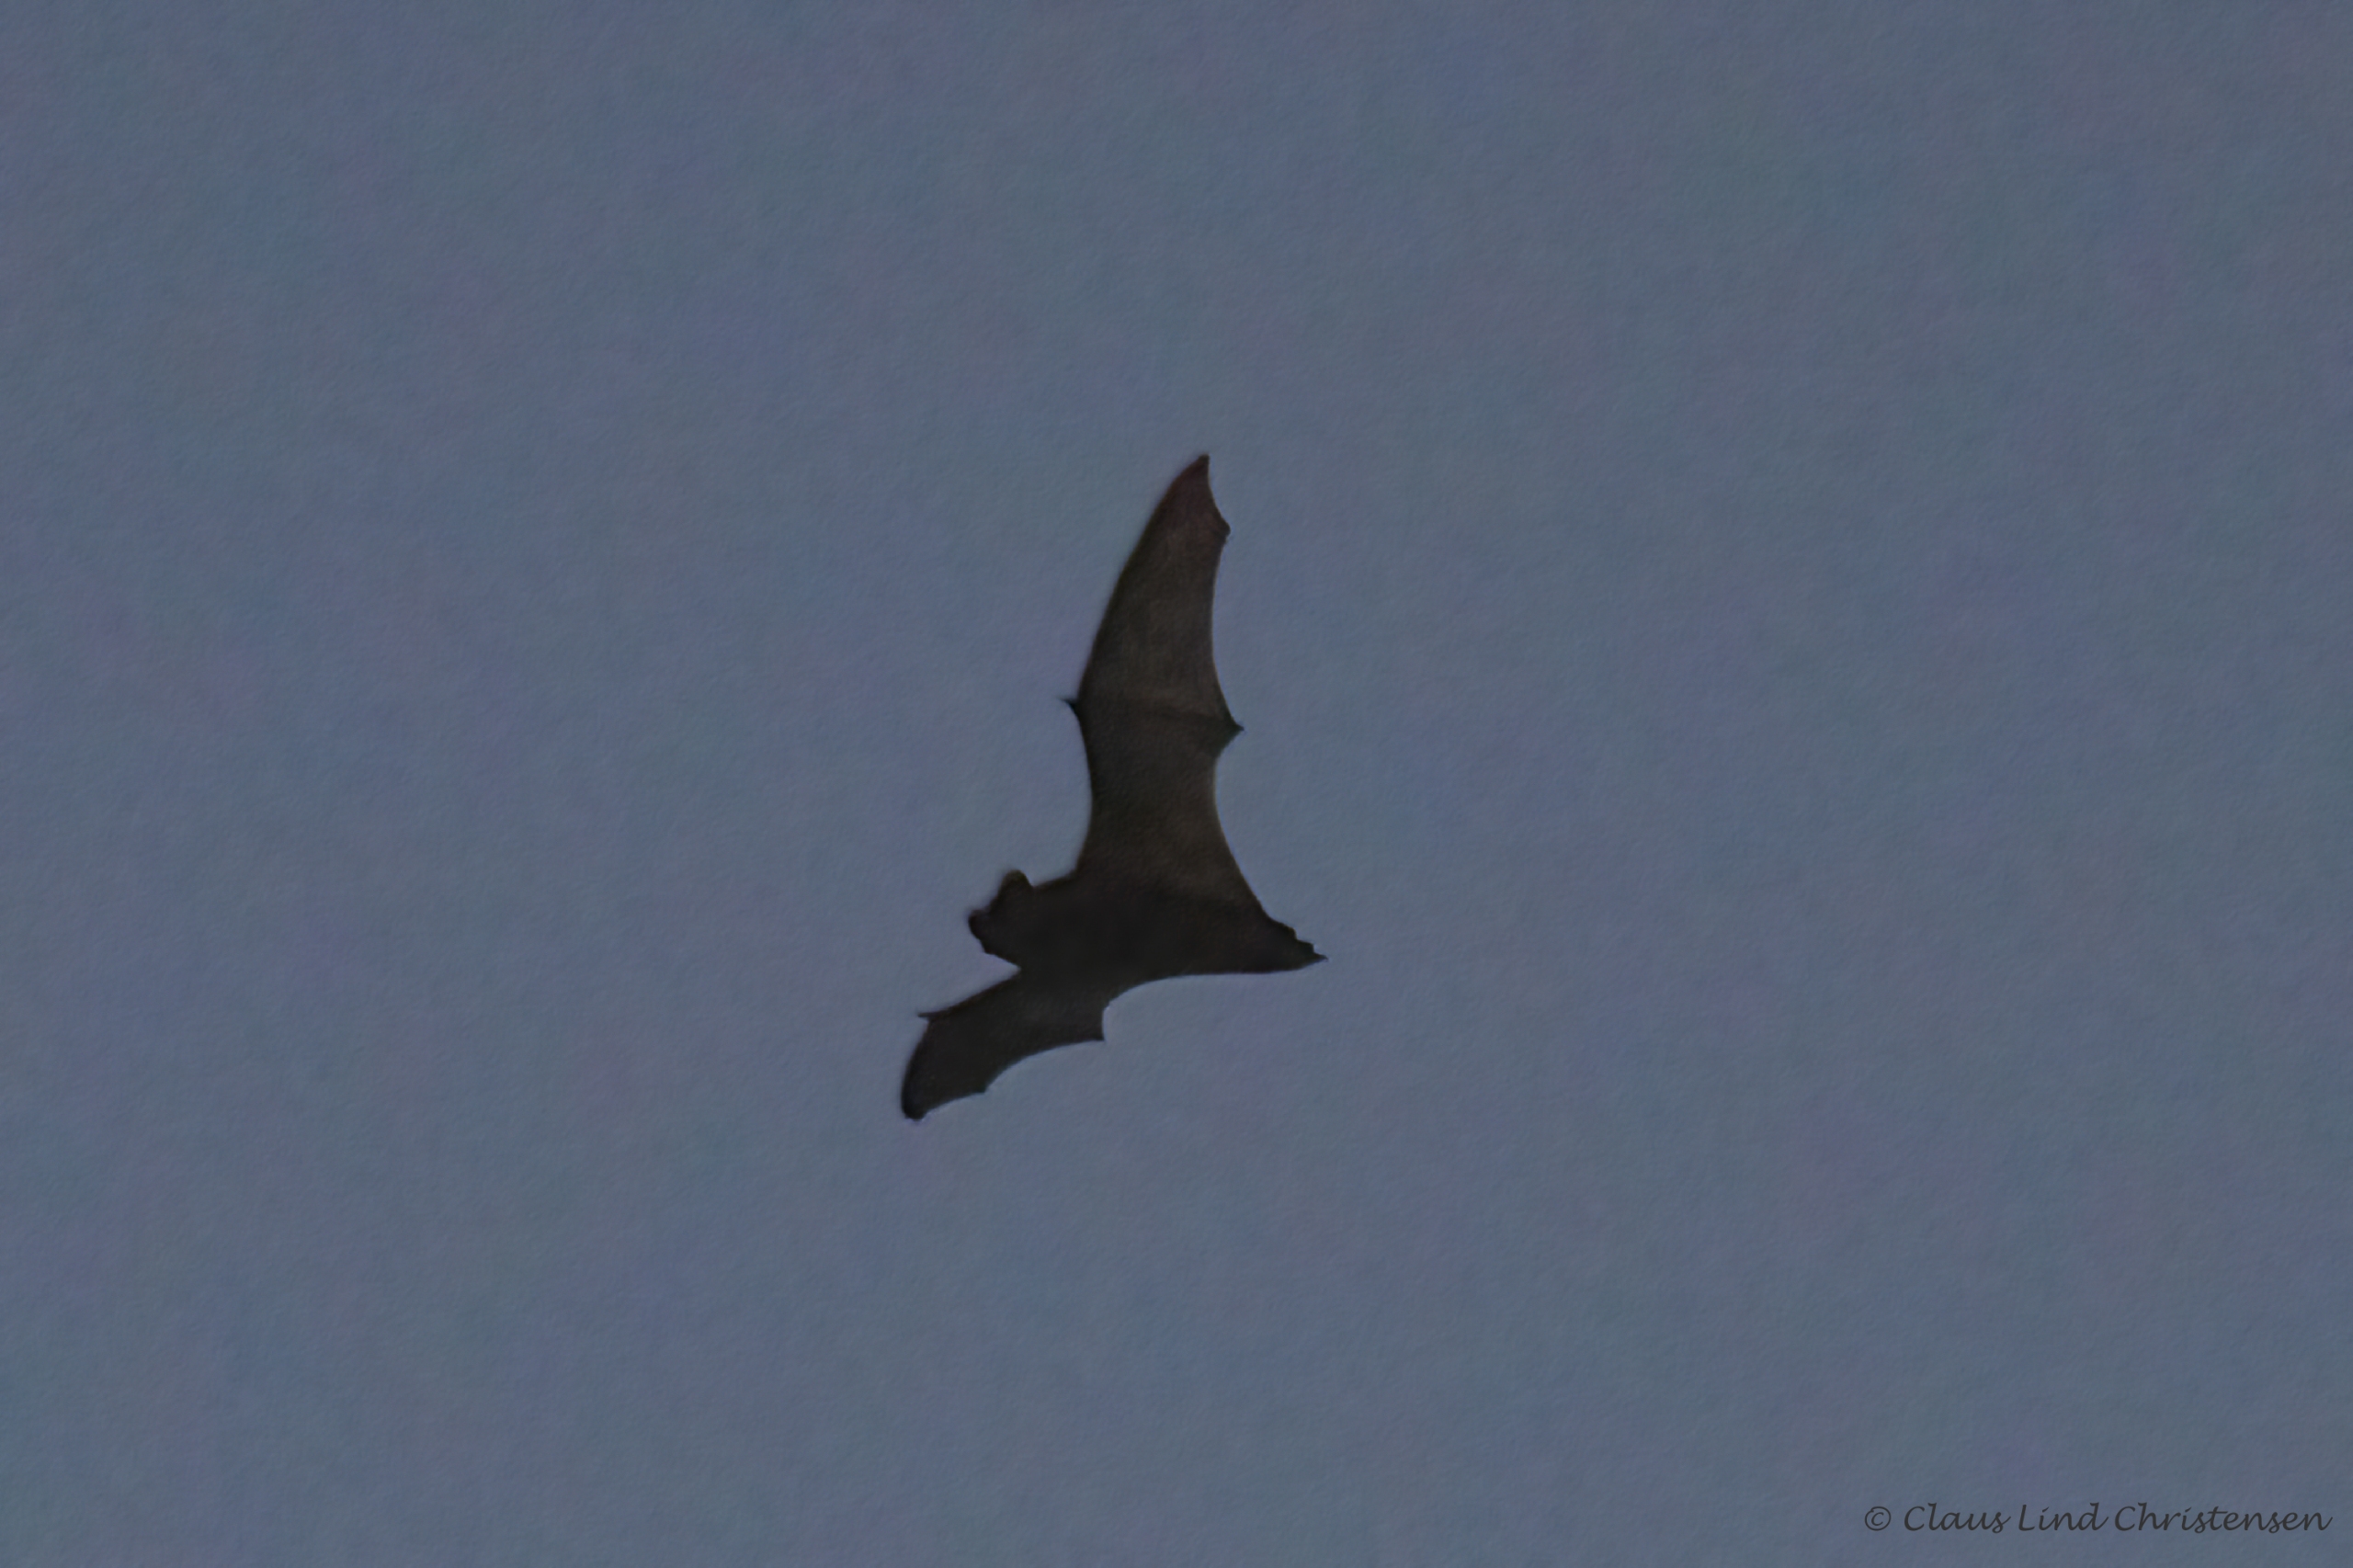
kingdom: Animalia
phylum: Chordata
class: Mammalia
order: Chiroptera
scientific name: Chiroptera
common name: Flagermus
